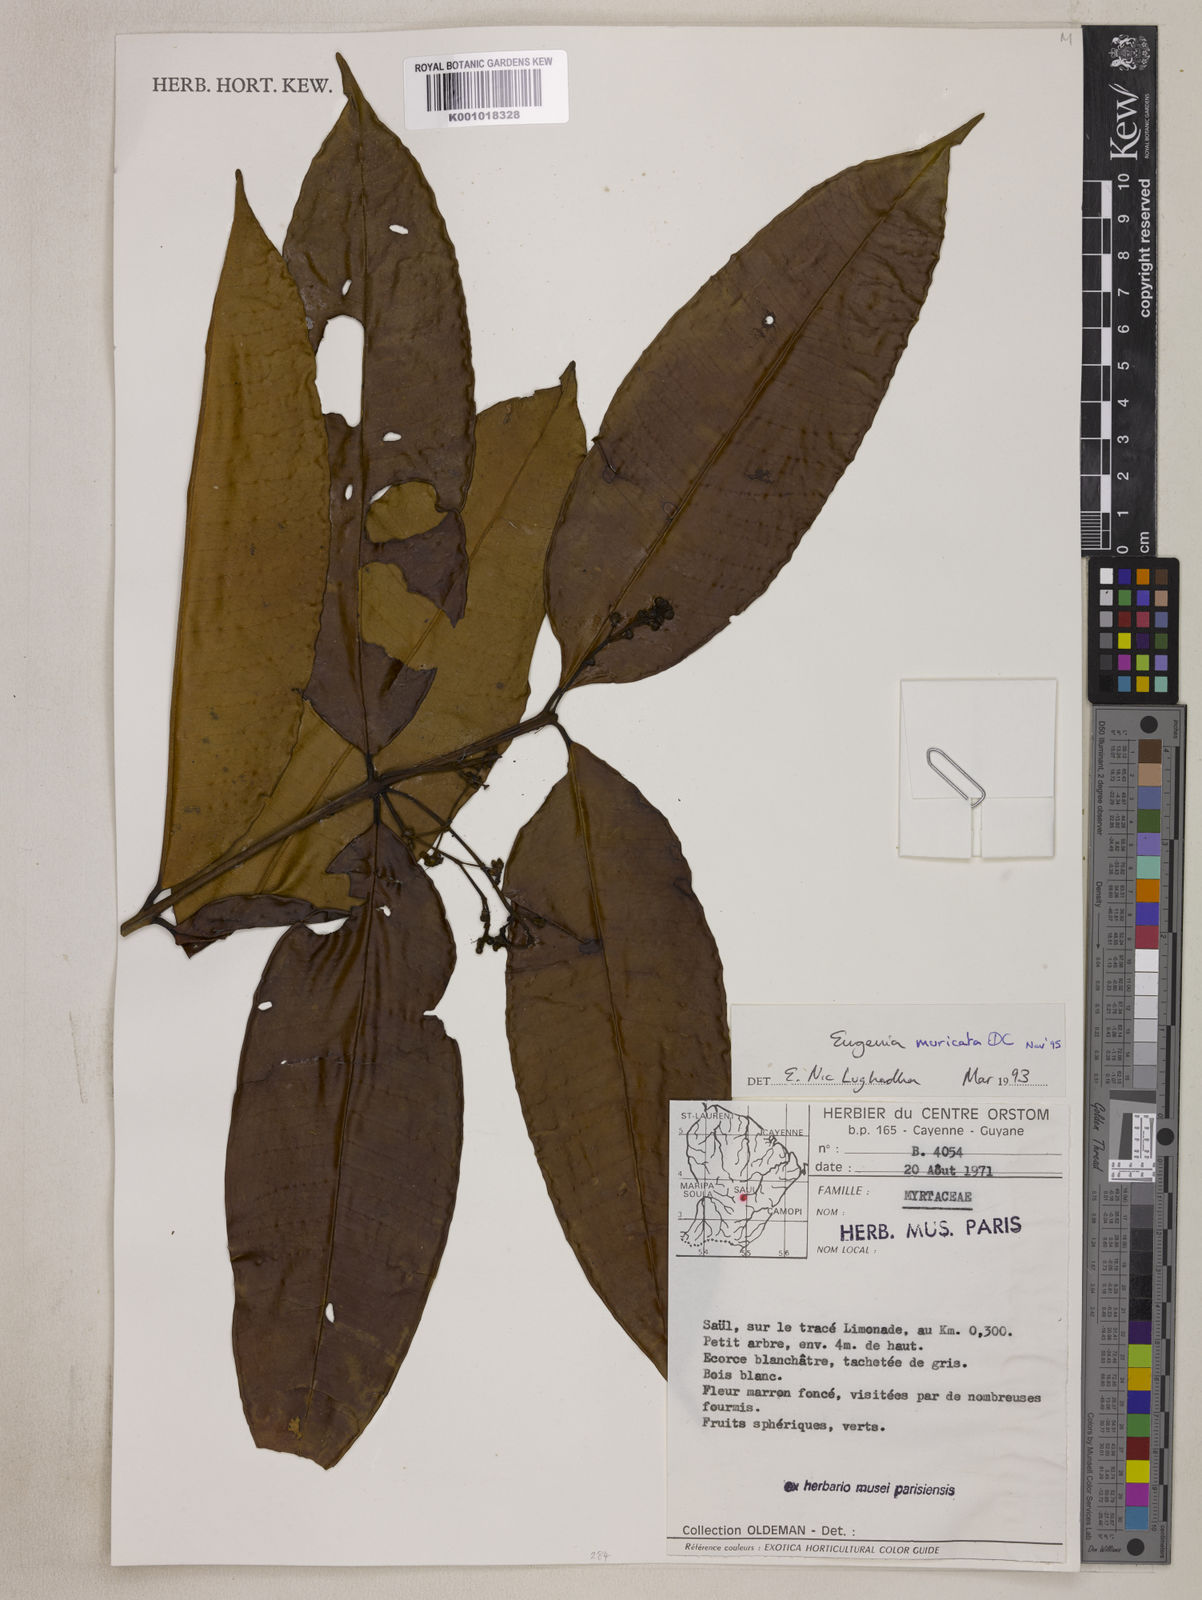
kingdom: Plantae
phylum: Tracheophyta
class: Magnoliopsida
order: Myrtales
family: Myrtaceae
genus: Eugenia
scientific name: Eugenia muricata
